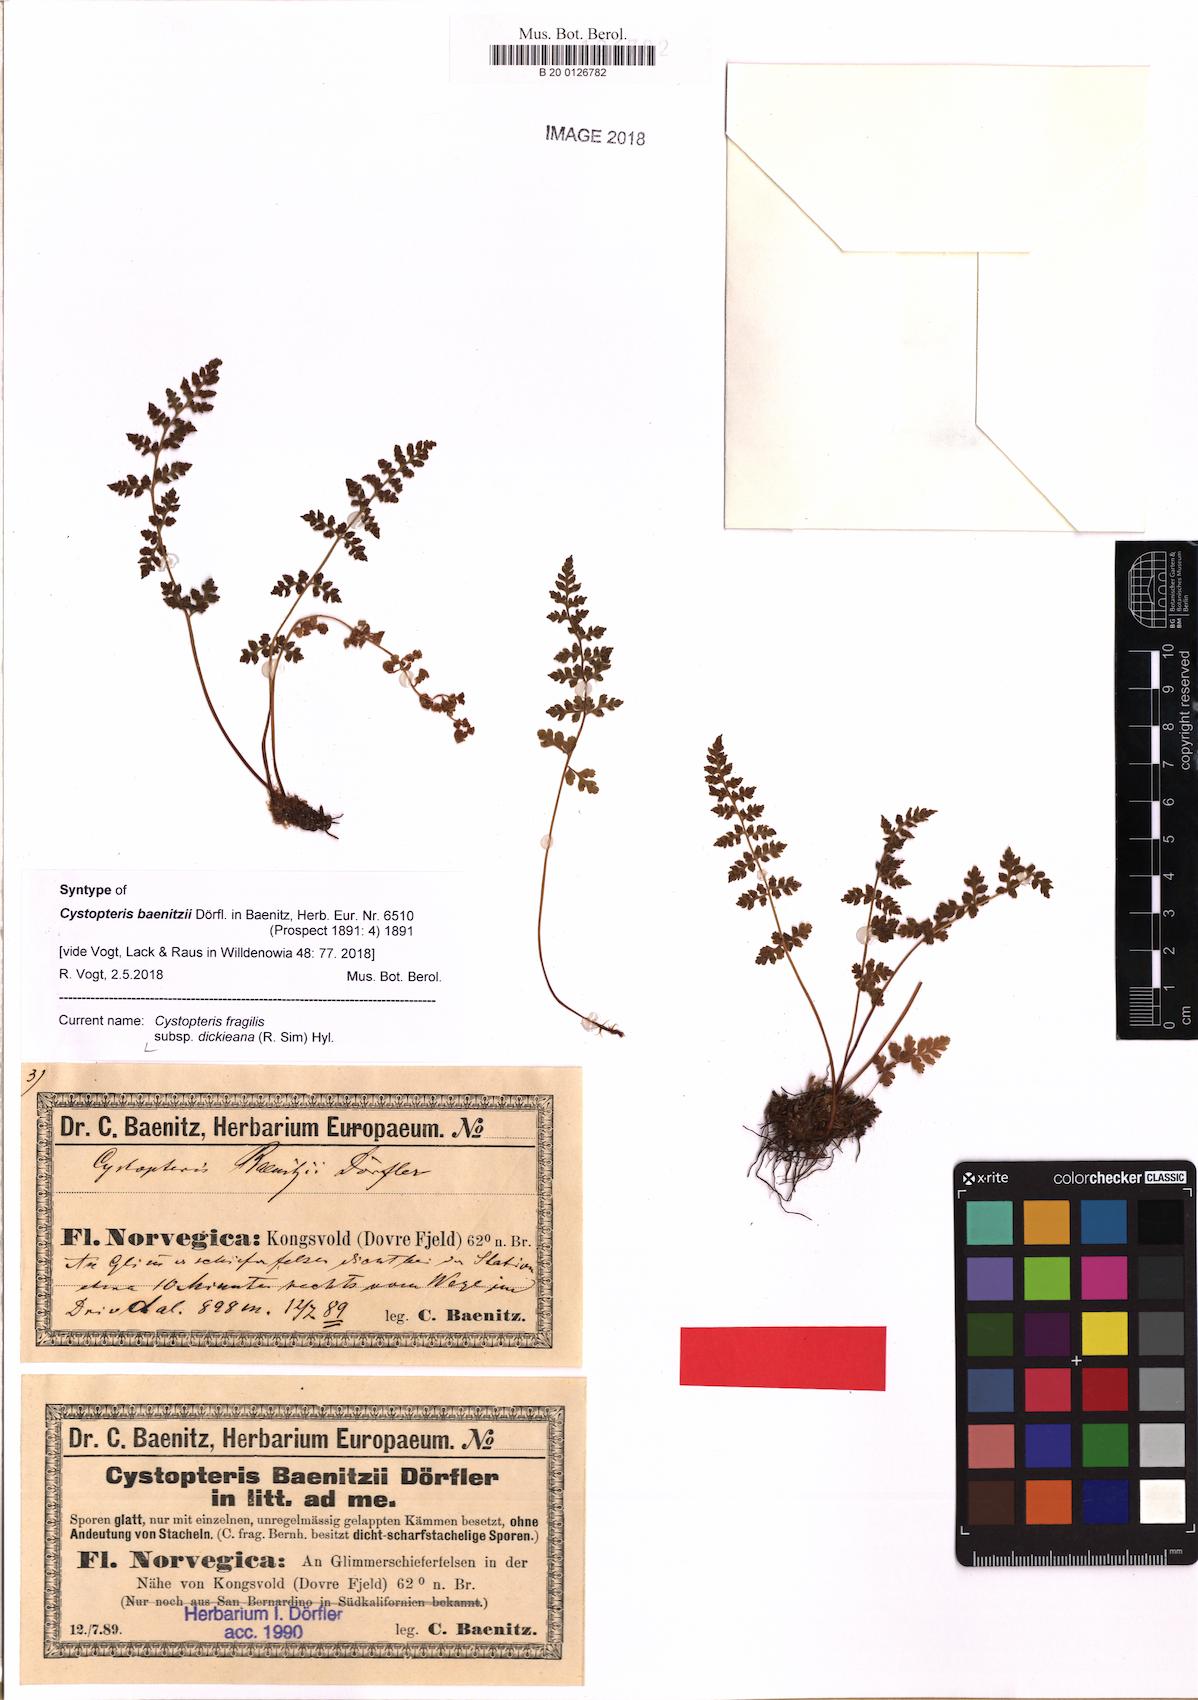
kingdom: Plantae
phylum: Tracheophyta
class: Polypodiopsida
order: Polypodiales
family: Cystopteridaceae
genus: Cystopteris
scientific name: Cystopteris dickieana
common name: Dickie's bladder-fern
